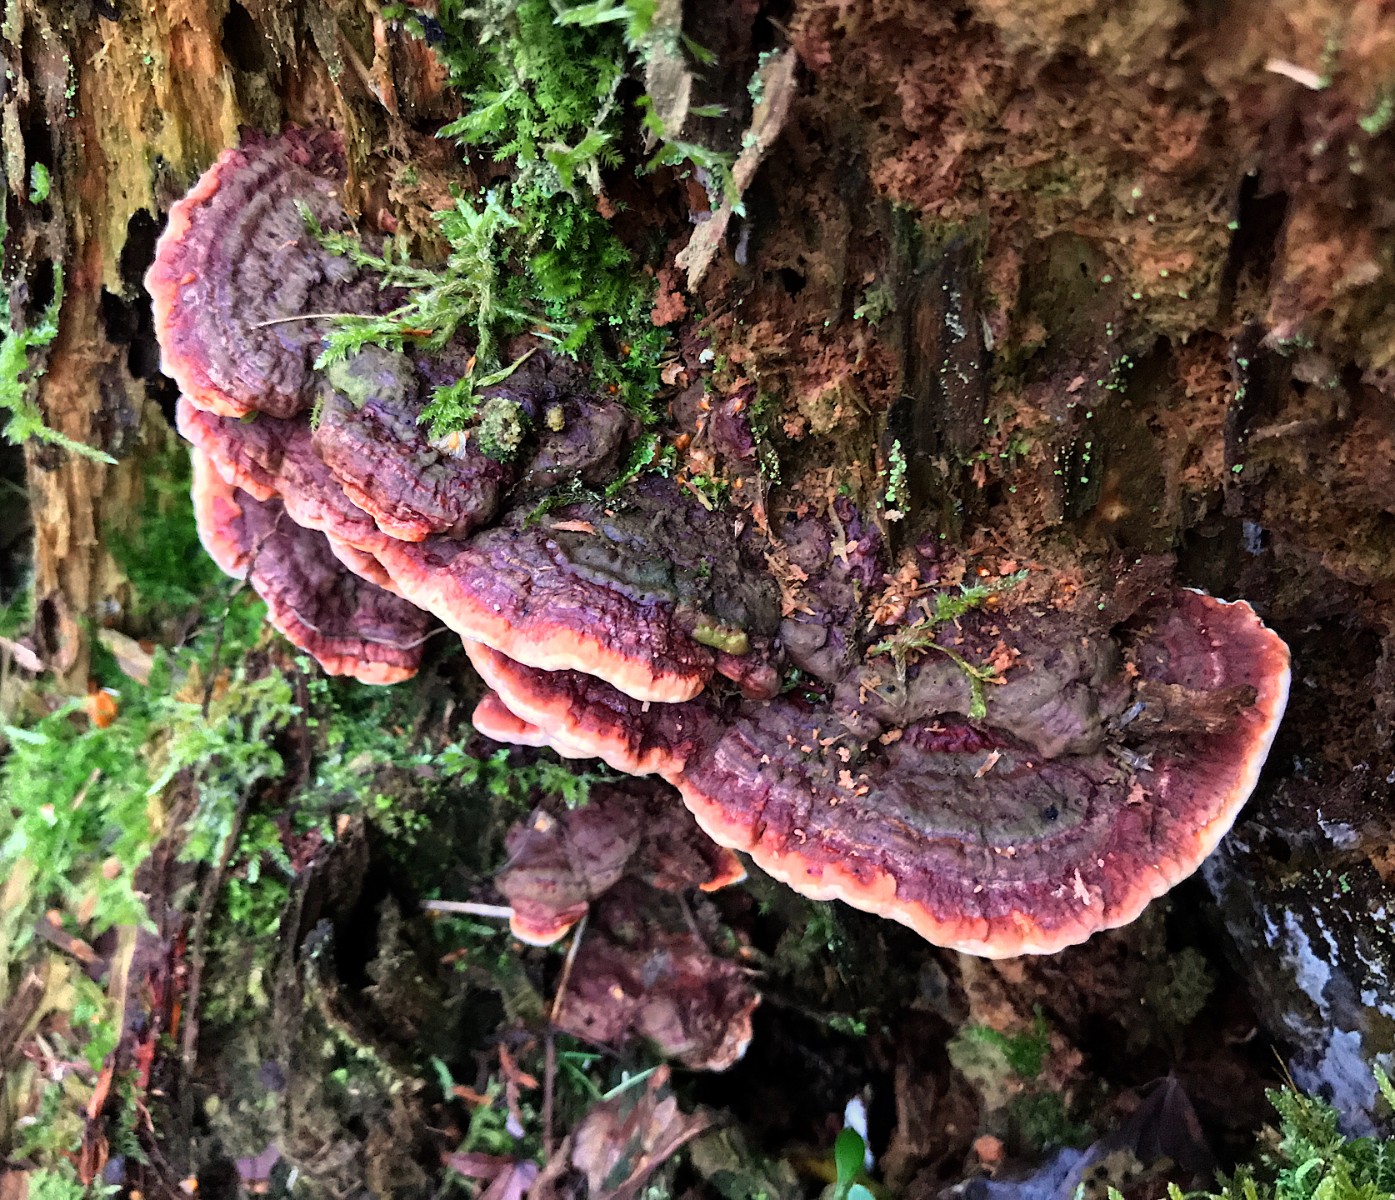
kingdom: Fungi
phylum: Basidiomycota
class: Agaricomycetes
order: Russulales
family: Bondarzewiaceae
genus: Heterobasidion
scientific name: Heterobasidion annosum
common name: almindelig rodfordærver
